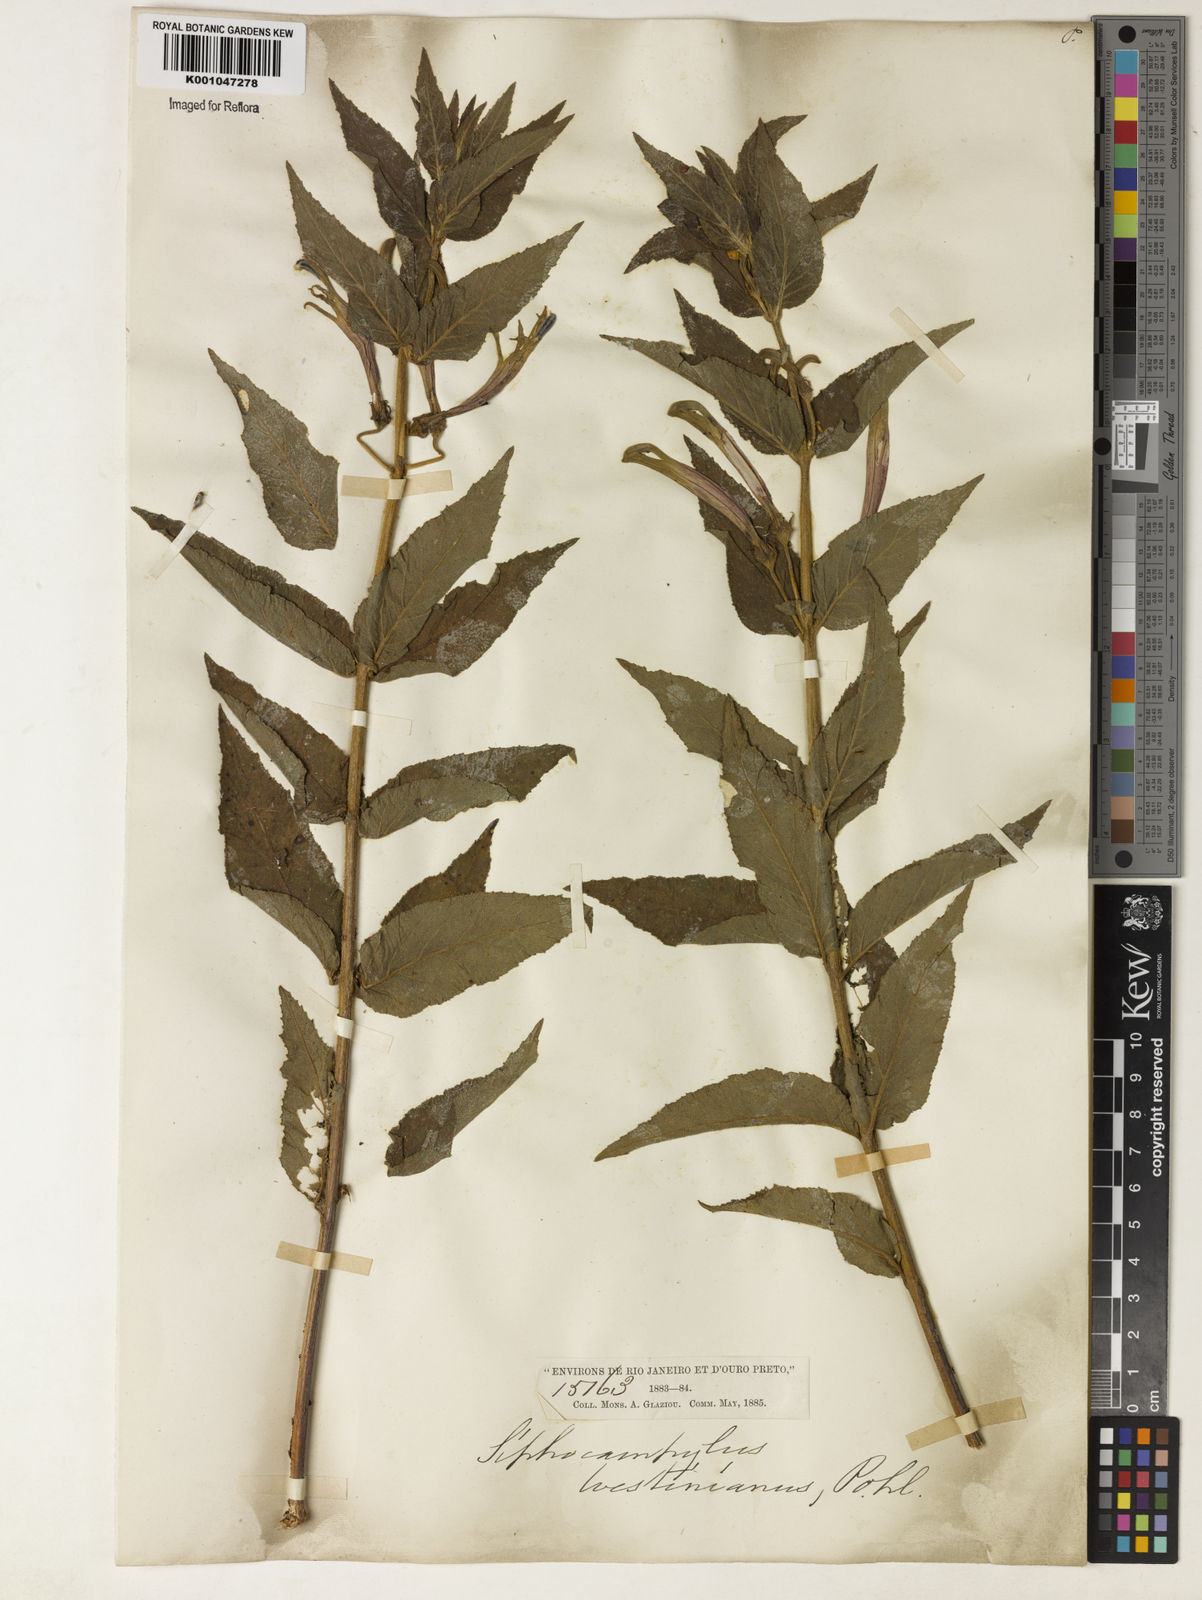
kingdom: Plantae
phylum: Tracheophyta
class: Magnoliopsida
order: Asterales
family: Campanulaceae
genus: Siphocampylus
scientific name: Siphocampylus westinianus
